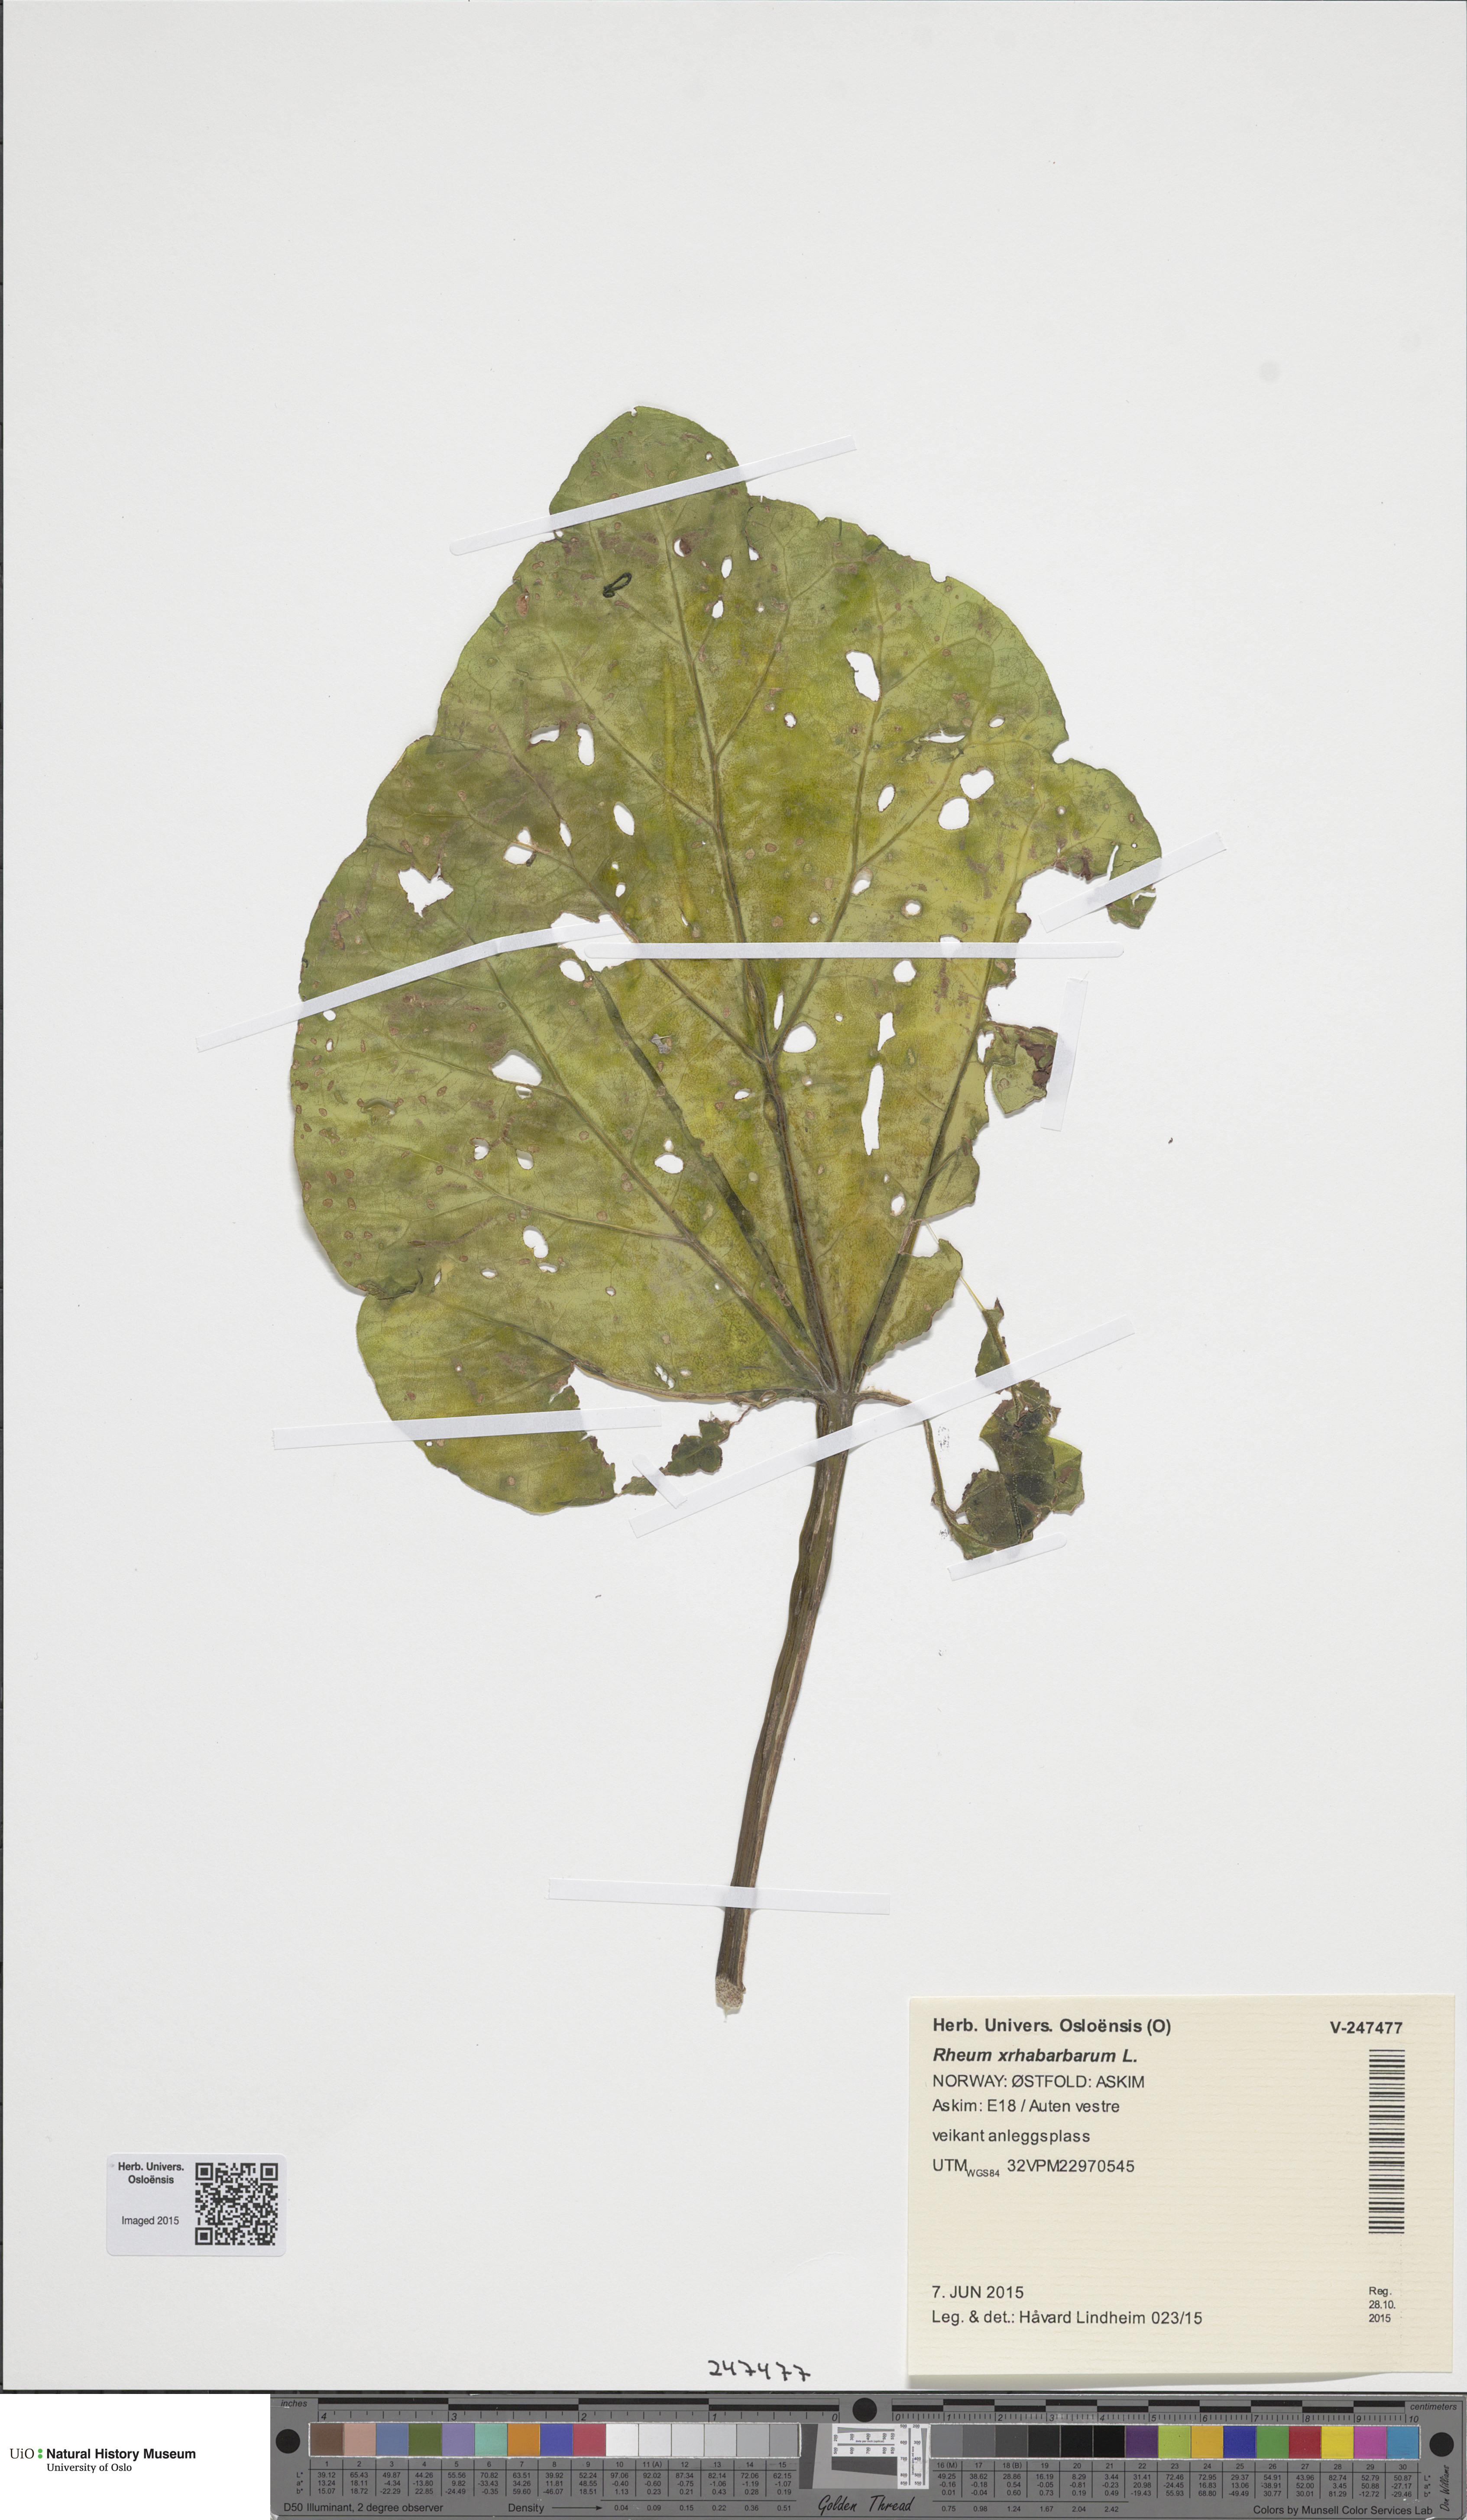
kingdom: Plantae
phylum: Tracheophyta
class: Magnoliopsida
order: Caryophyllales
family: Polygonaceae
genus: Rheum
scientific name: Rheum rhabarbarum
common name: Garden rhubarb
